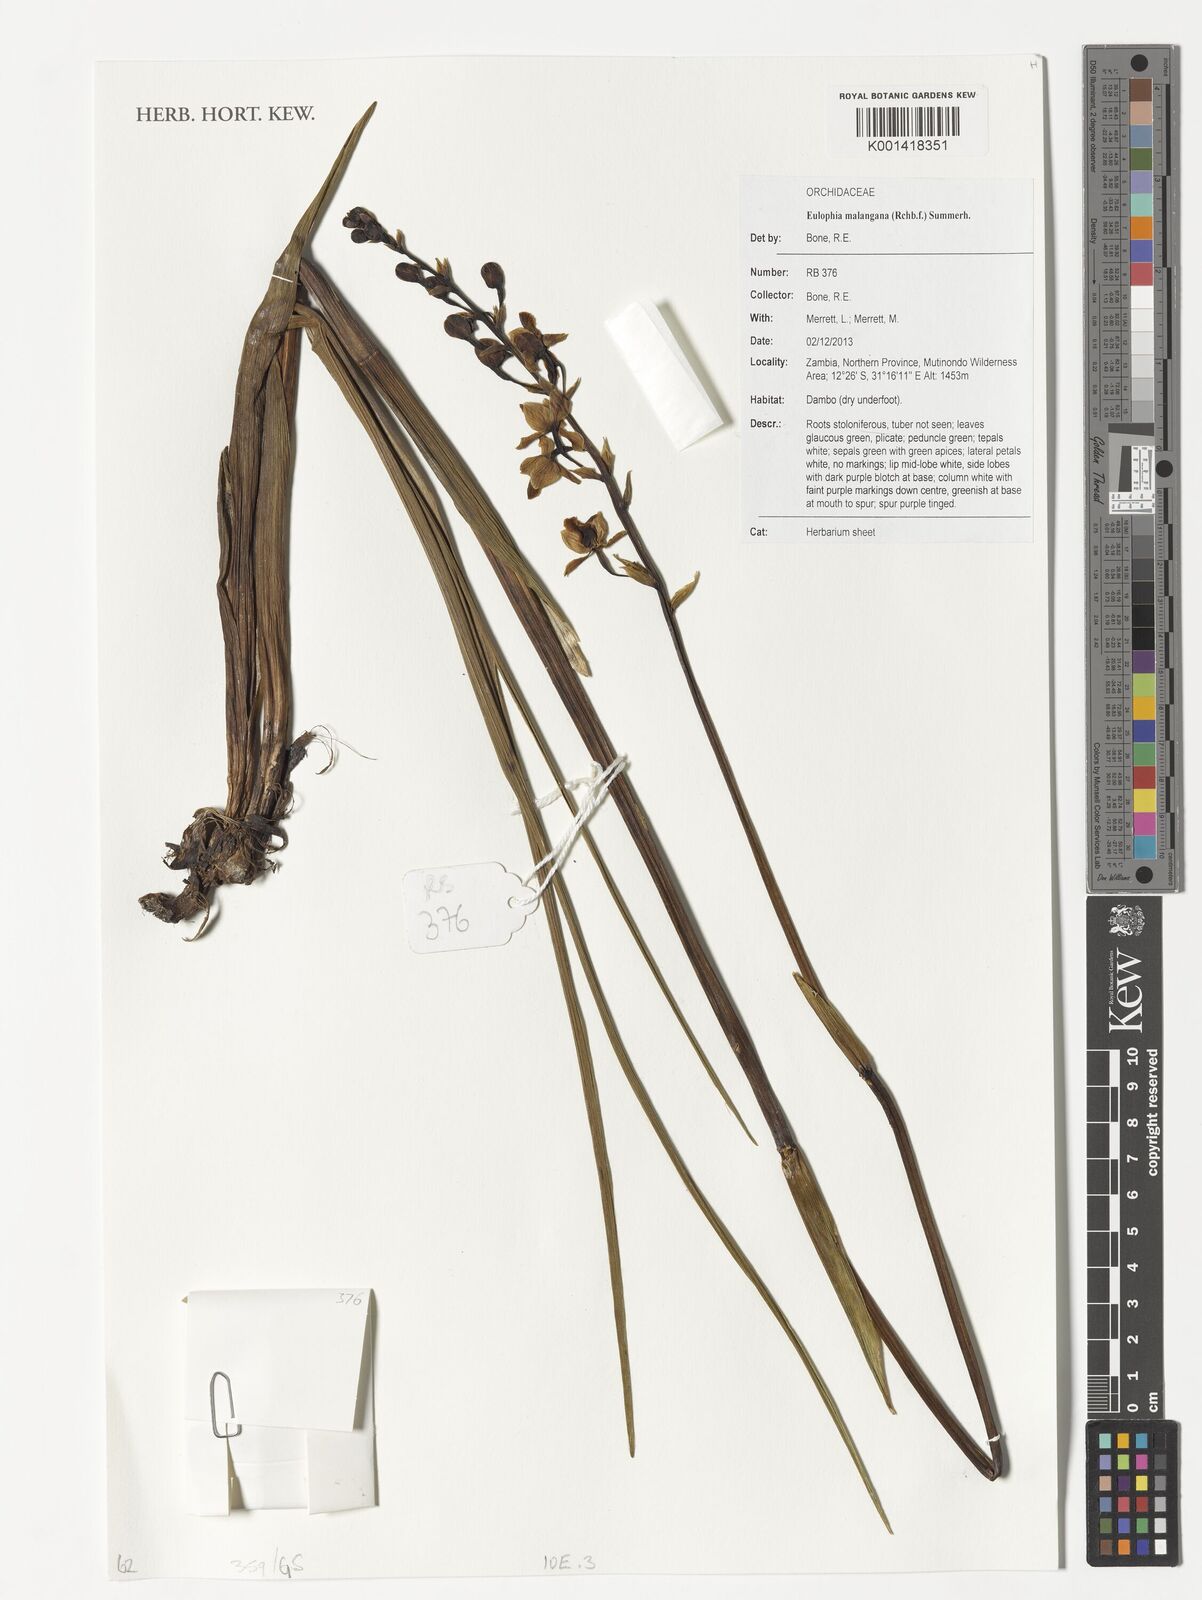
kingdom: Plantae
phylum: Tracheophyta
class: Liliopsida
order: Asparagales
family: Orchidaceae
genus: Eulophia
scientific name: Eulophia malangana
